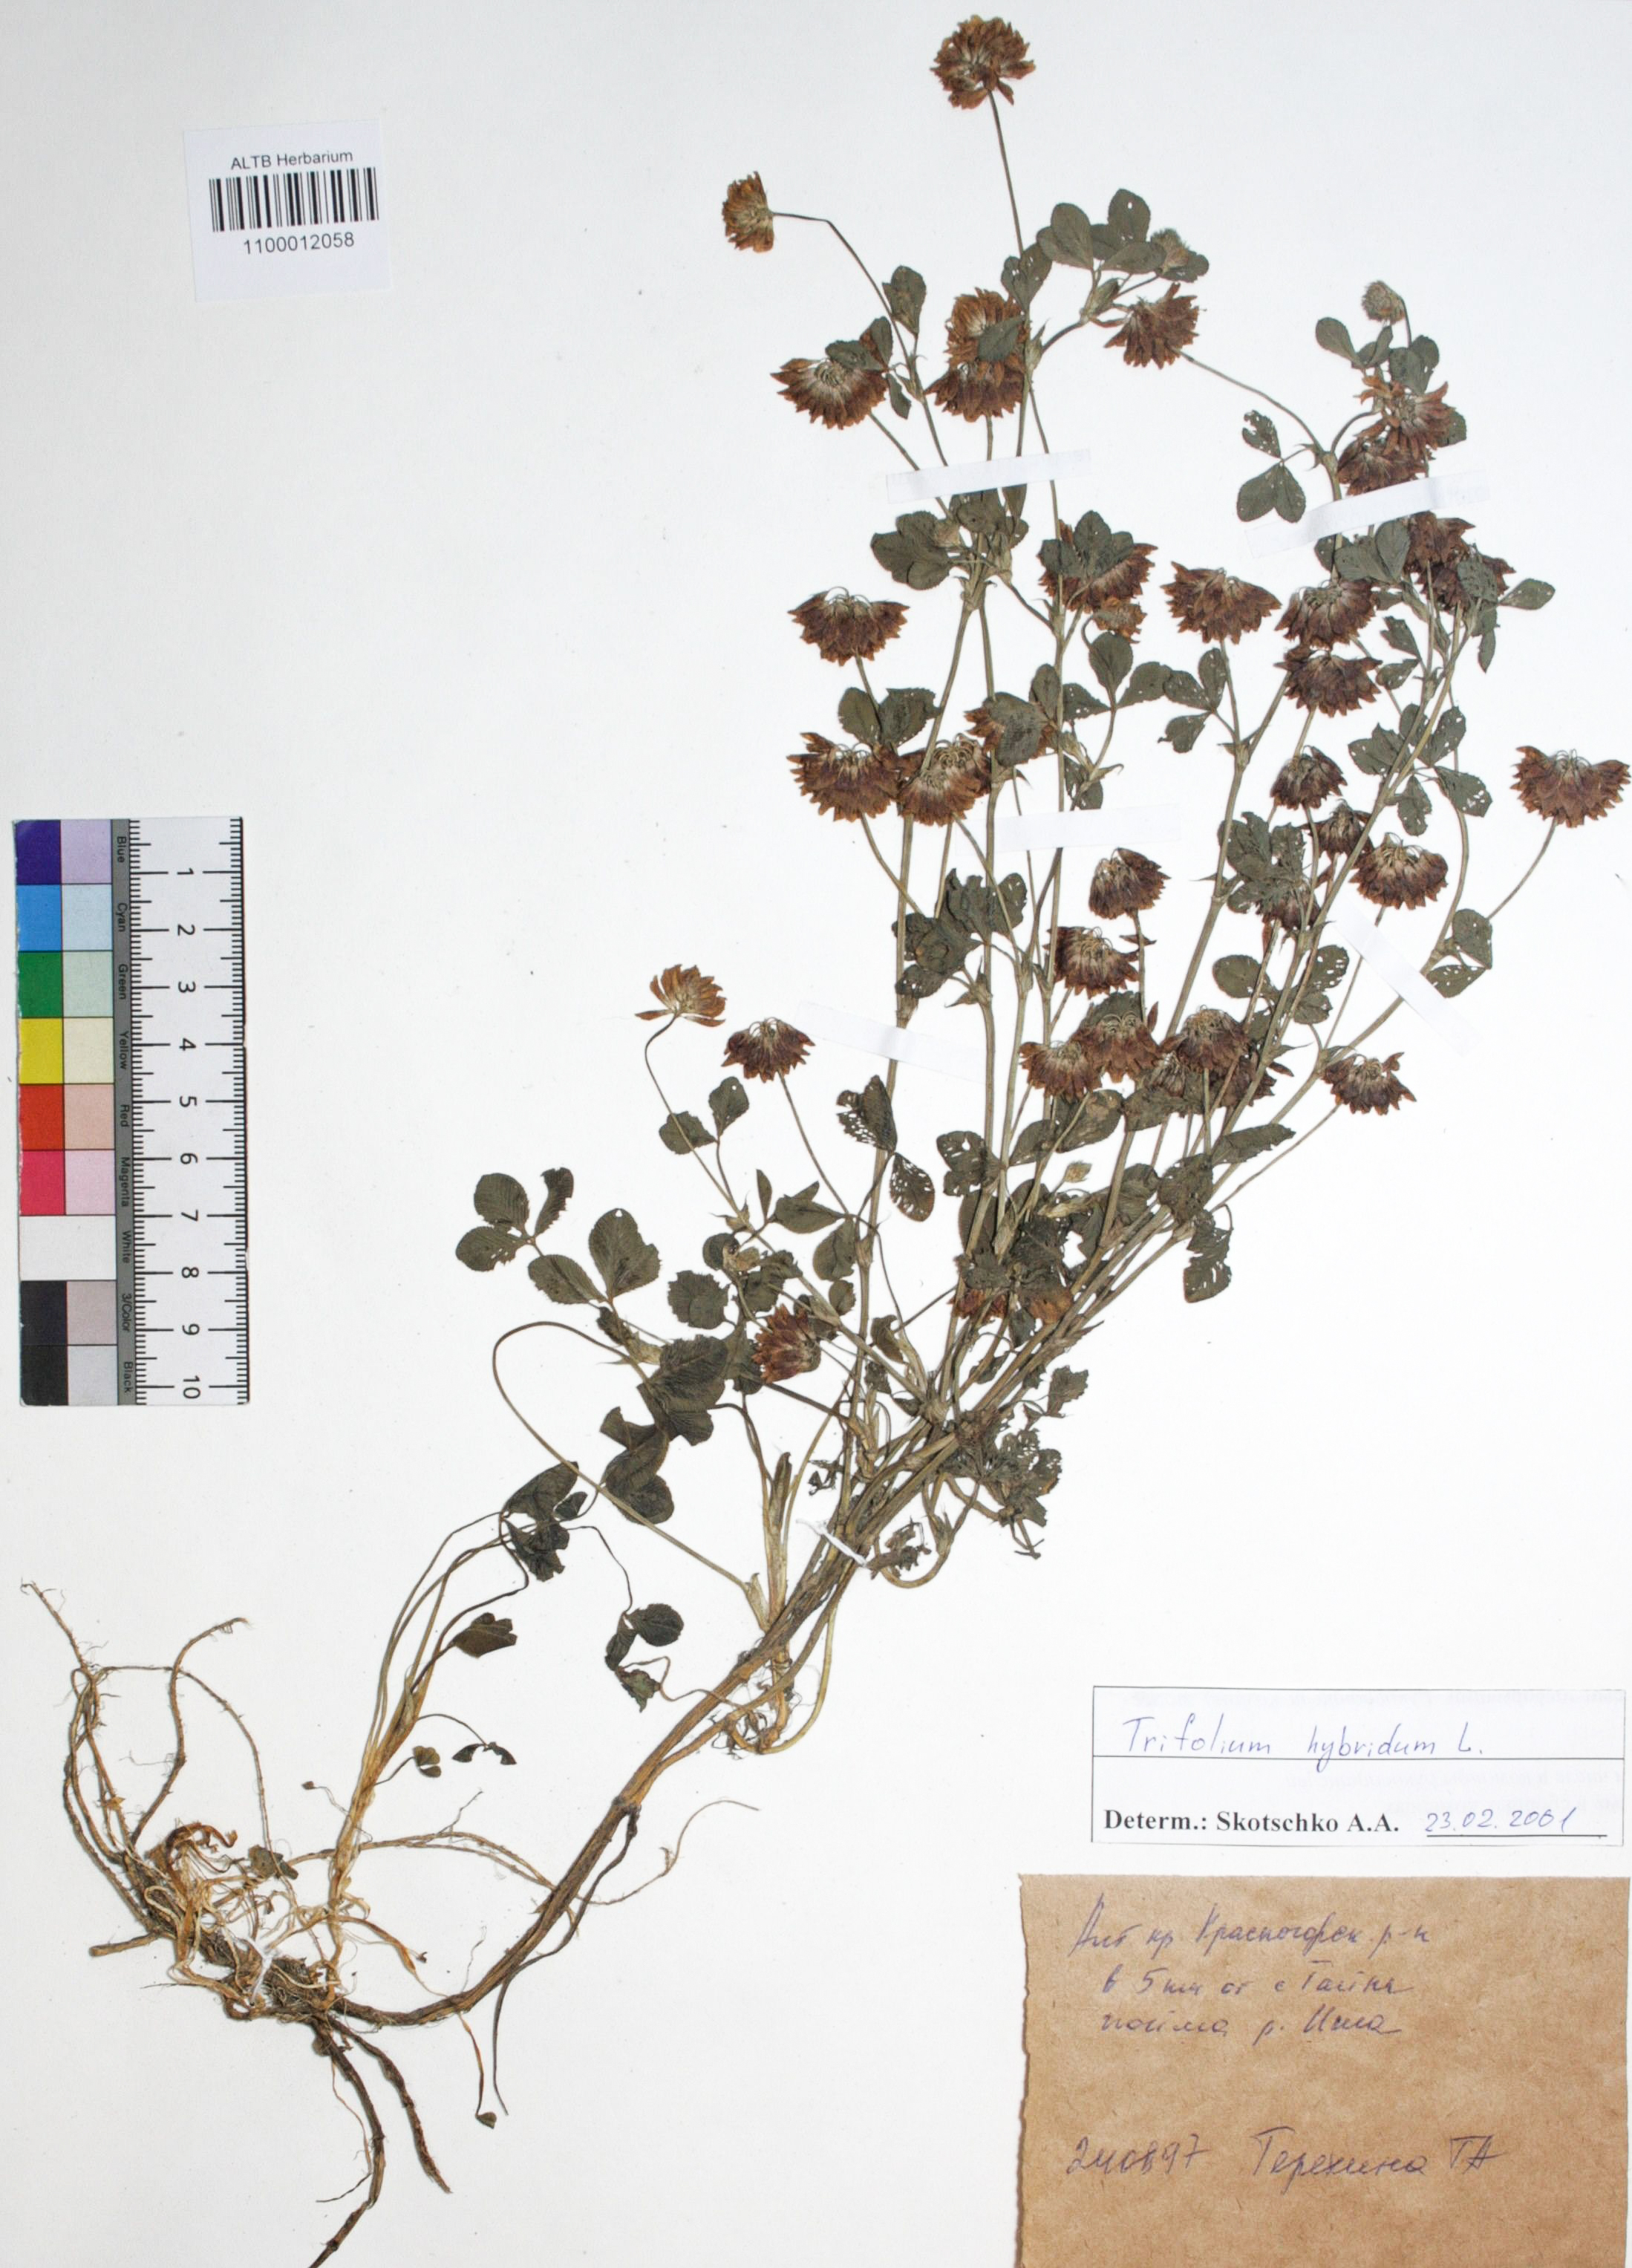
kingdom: Plantae
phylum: Tracheophyta
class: Magnoliopsida
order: Fabales
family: Fabaceae
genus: Trifolium
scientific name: Trifolium hybridum
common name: Alsike clover
